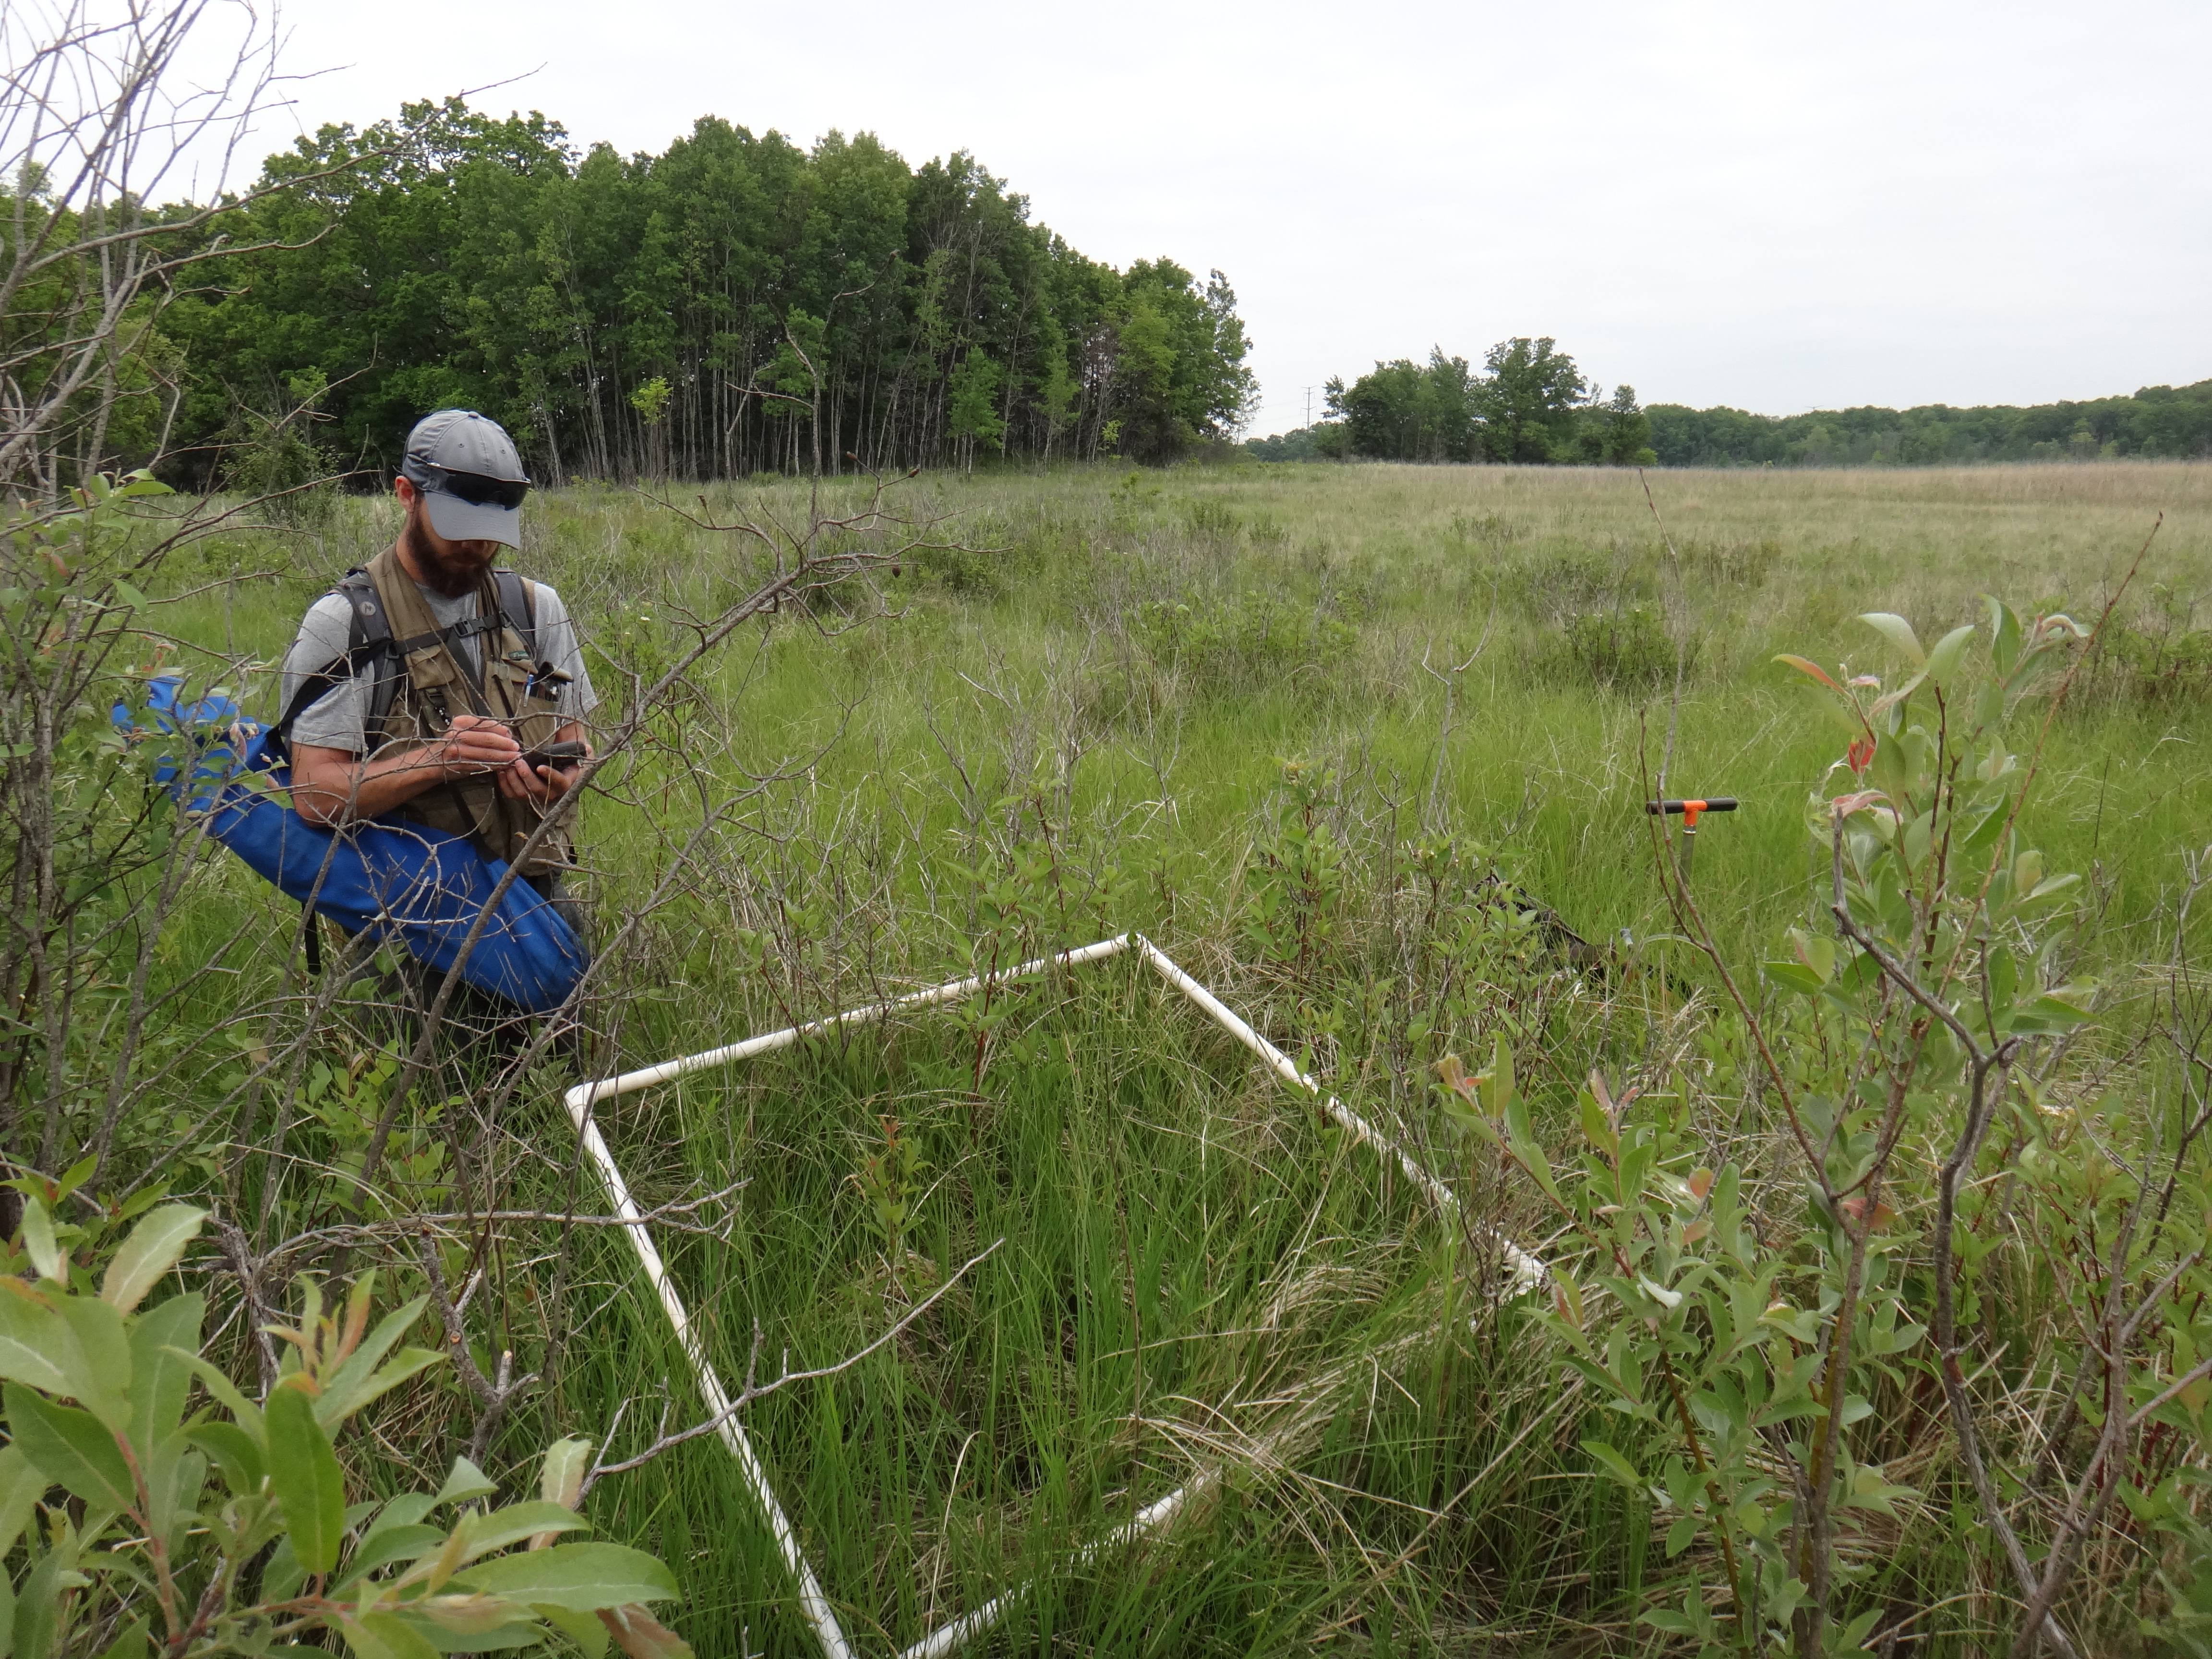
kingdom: Plantae
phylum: Tracheophyta
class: Magnoliopsida
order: Cornales
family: Cornaceae
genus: Cornus
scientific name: Cornus sericea
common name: Red-osier dogwood
